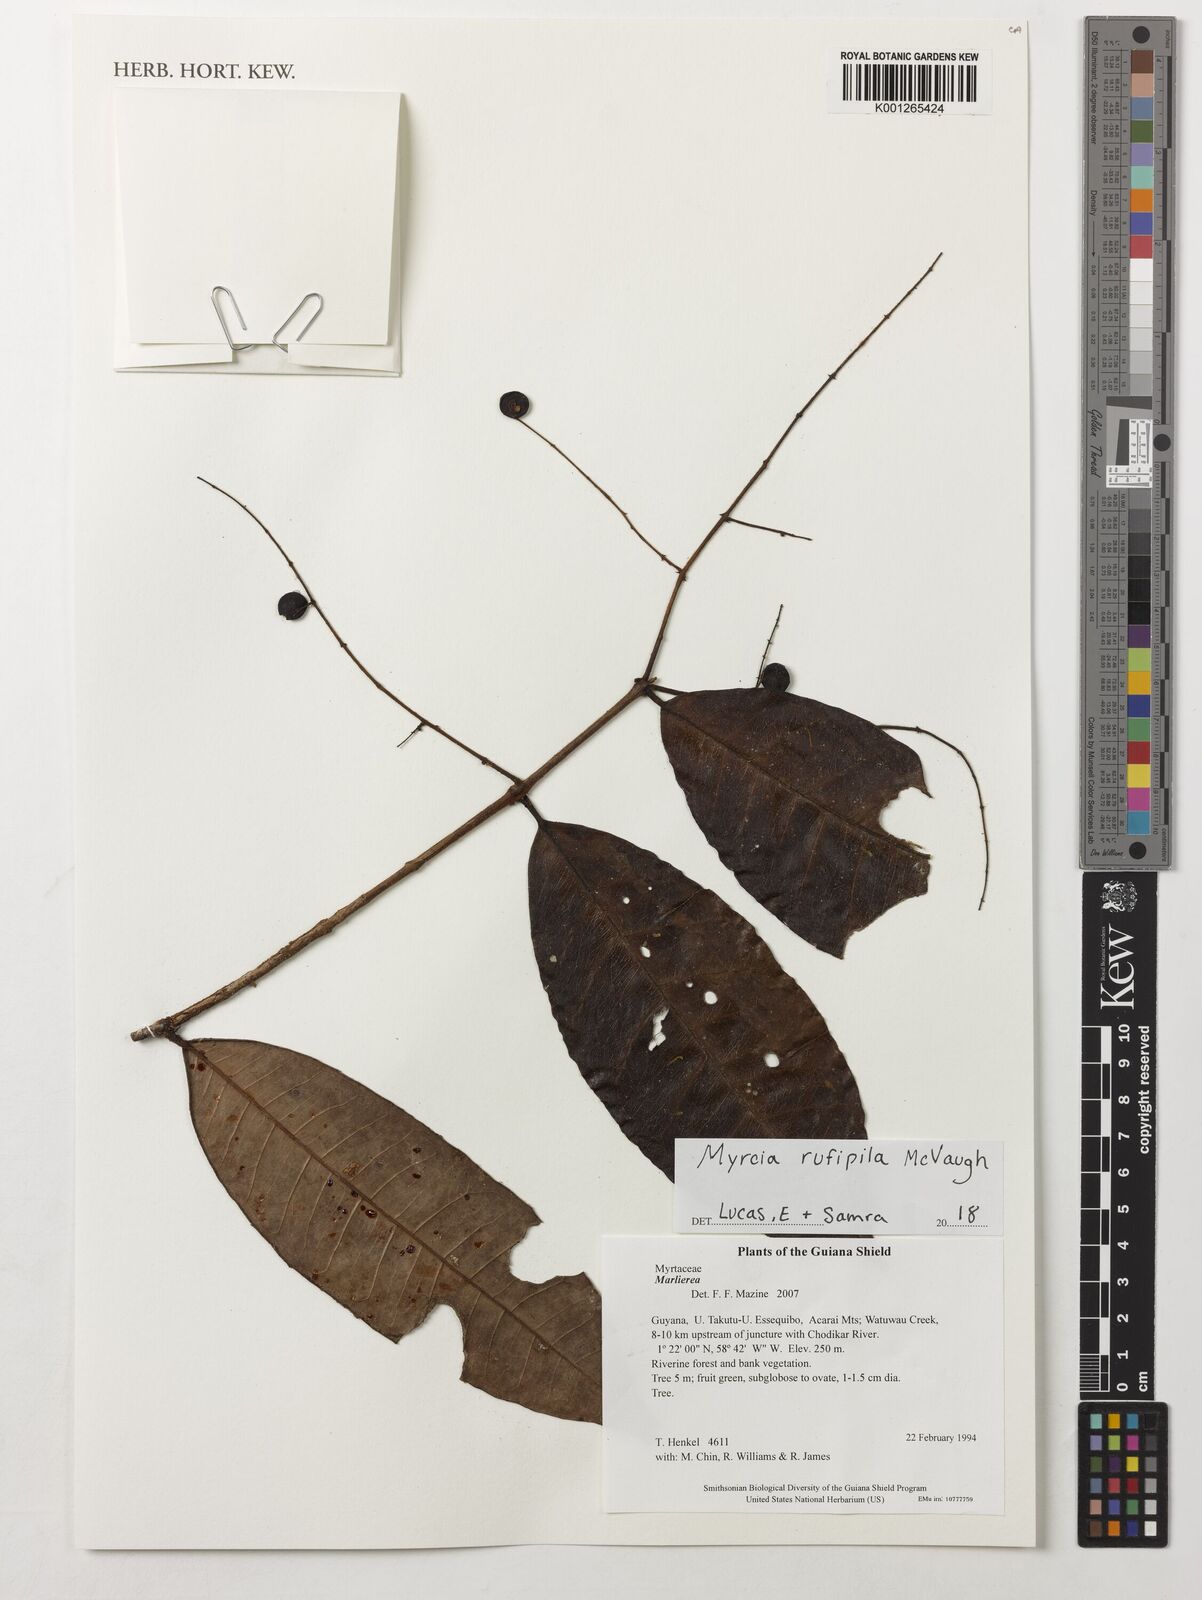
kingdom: Plantae
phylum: Tracheophyta
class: Magnoliopsida
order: Myrtales
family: Myrtaceae
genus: Myrcia
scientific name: Myrcia rufipila
